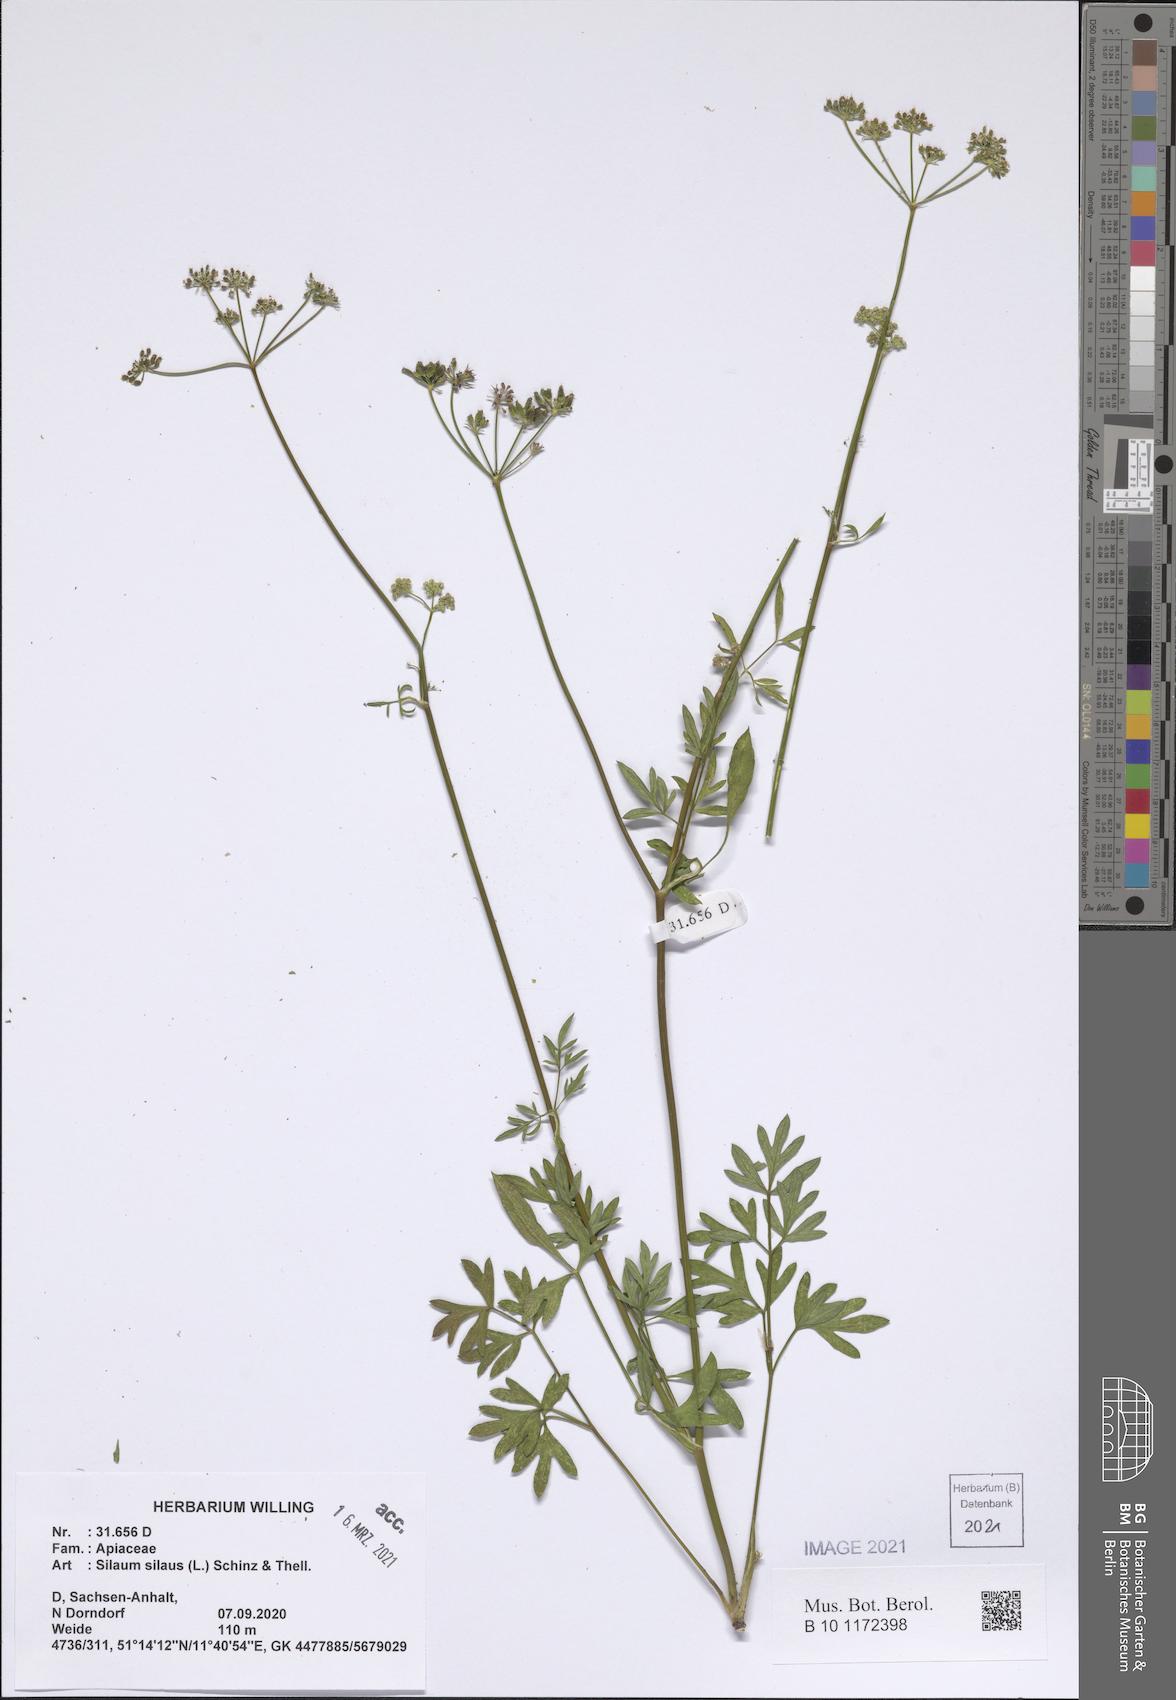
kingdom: Plantae
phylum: Tracheophyta
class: Magnoliopsida
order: Apiales
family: Apiaceae
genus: Silaum
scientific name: Silaum silaus
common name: Pepper-saxifrage
